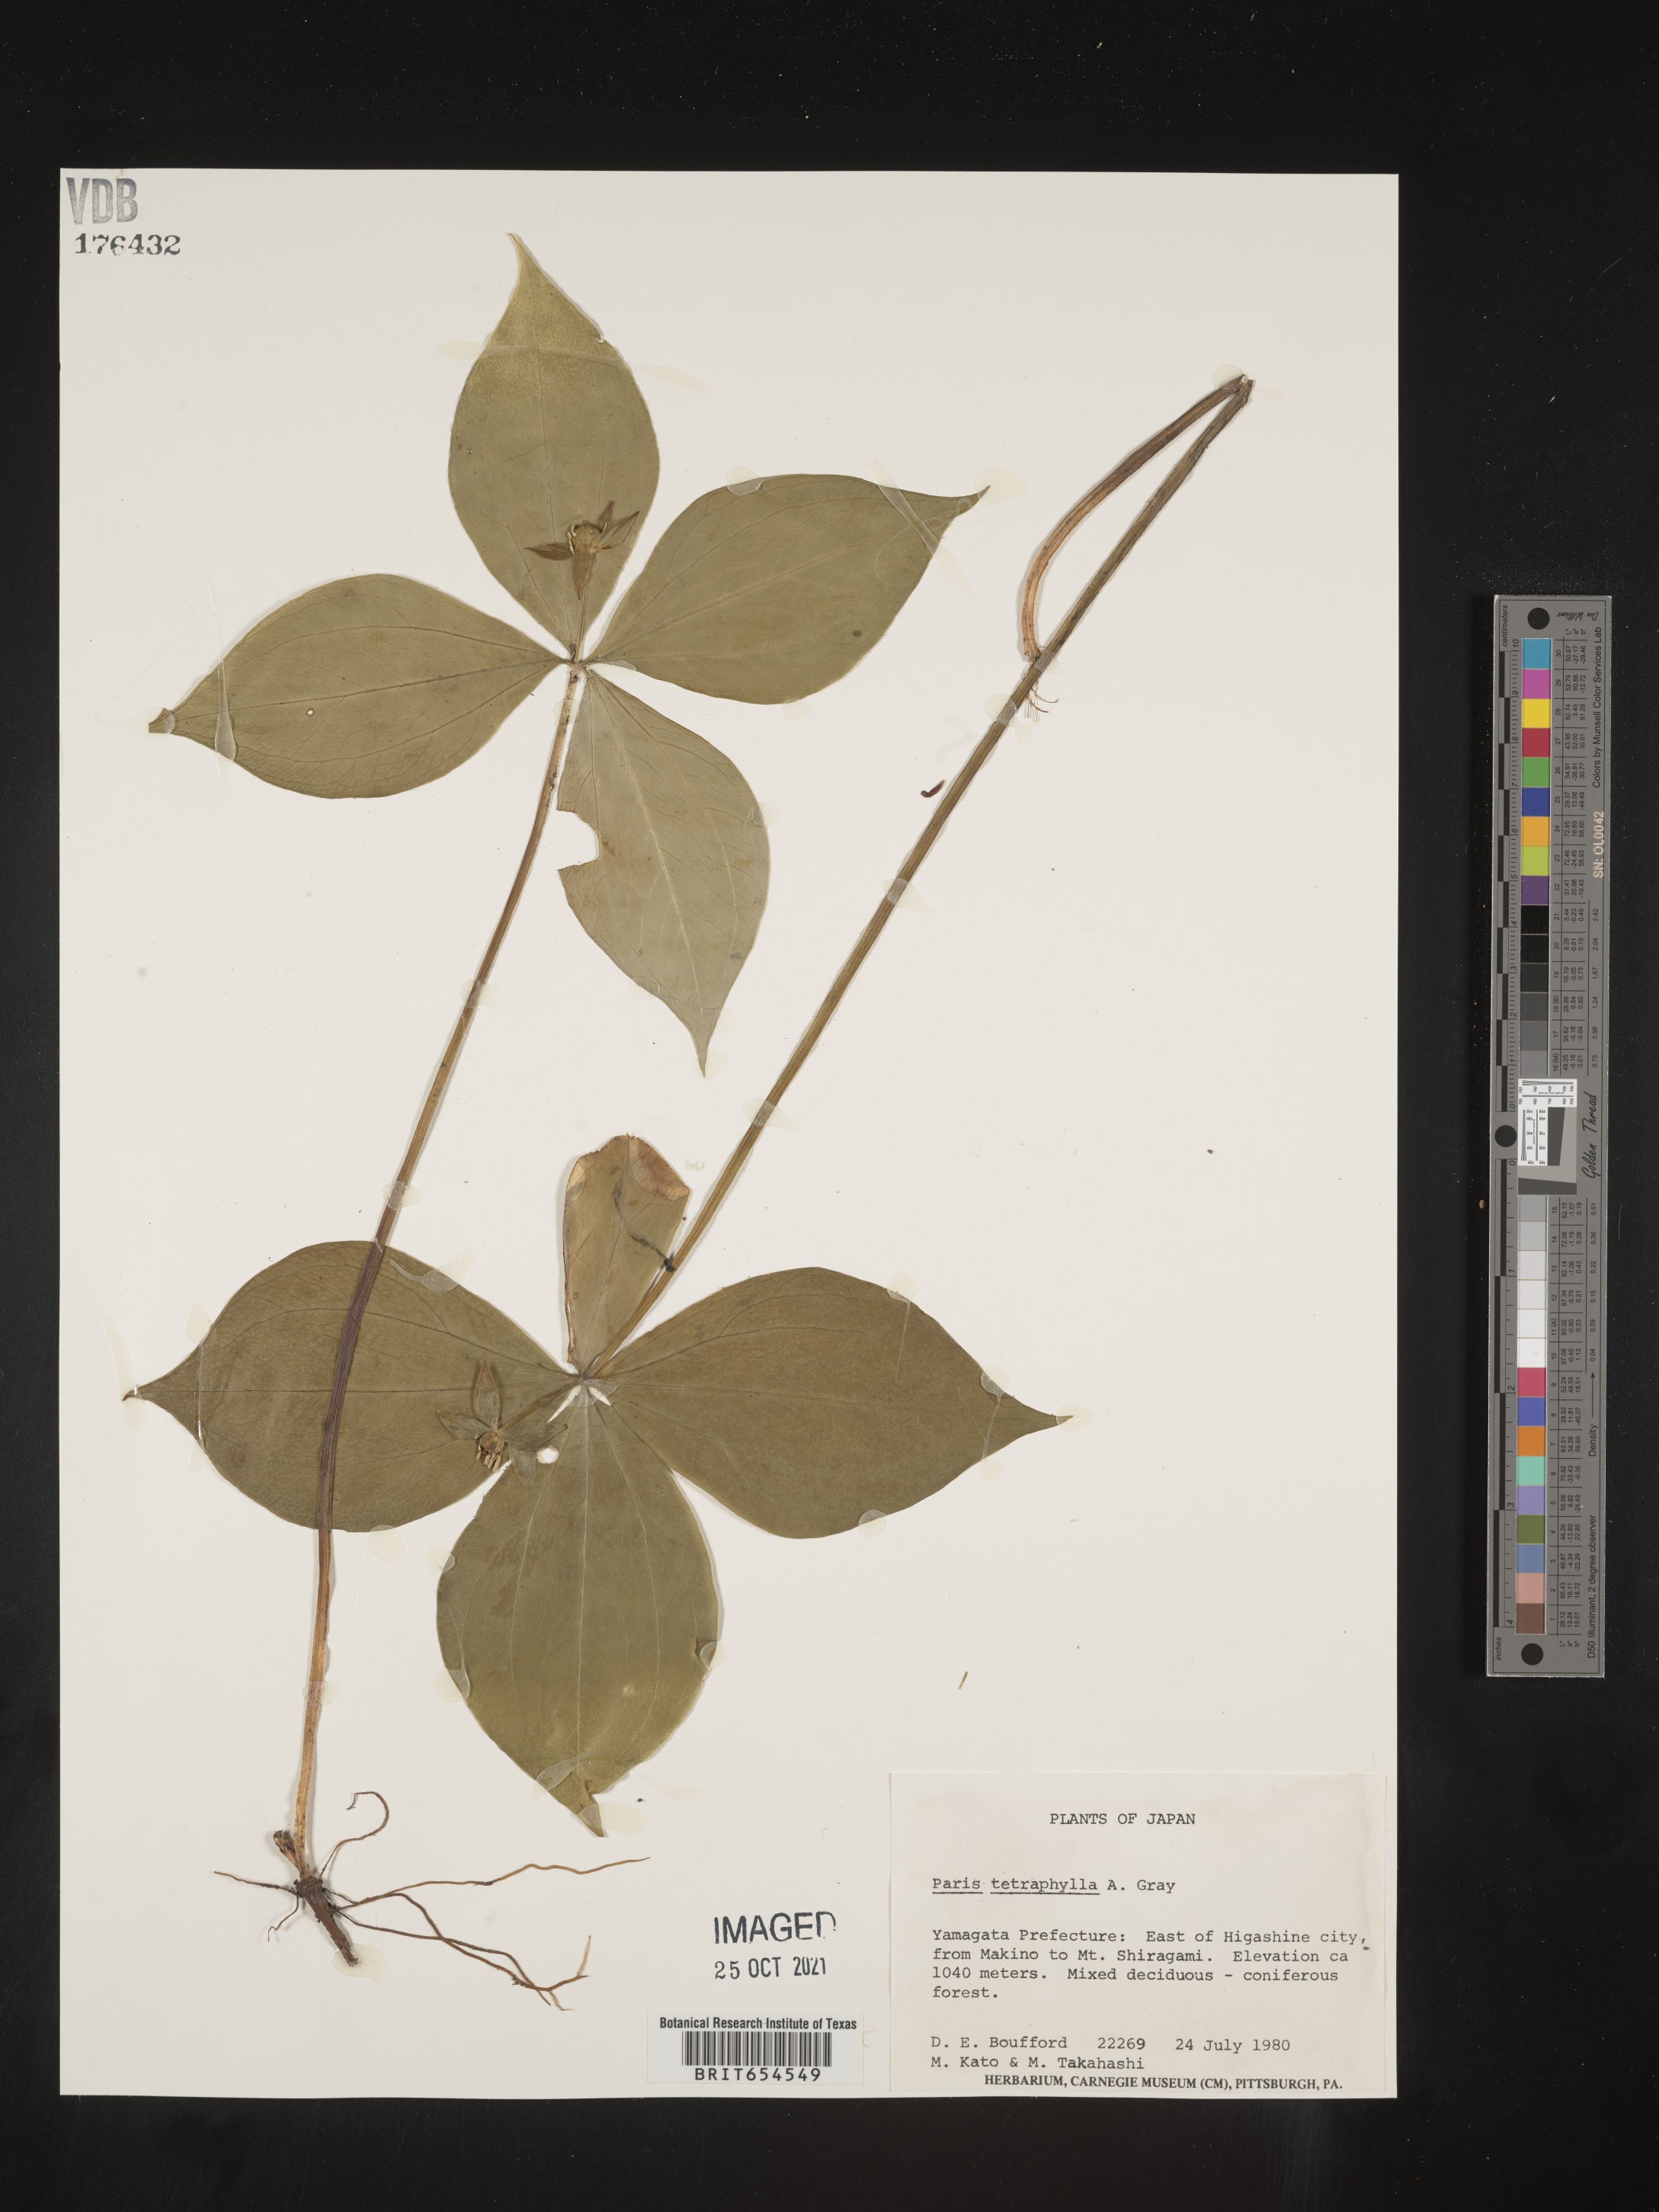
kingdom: Plantae
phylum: Tracheophyta
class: Liliopsida
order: Liliales
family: Melanthiaceae
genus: Paris
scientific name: Paris
